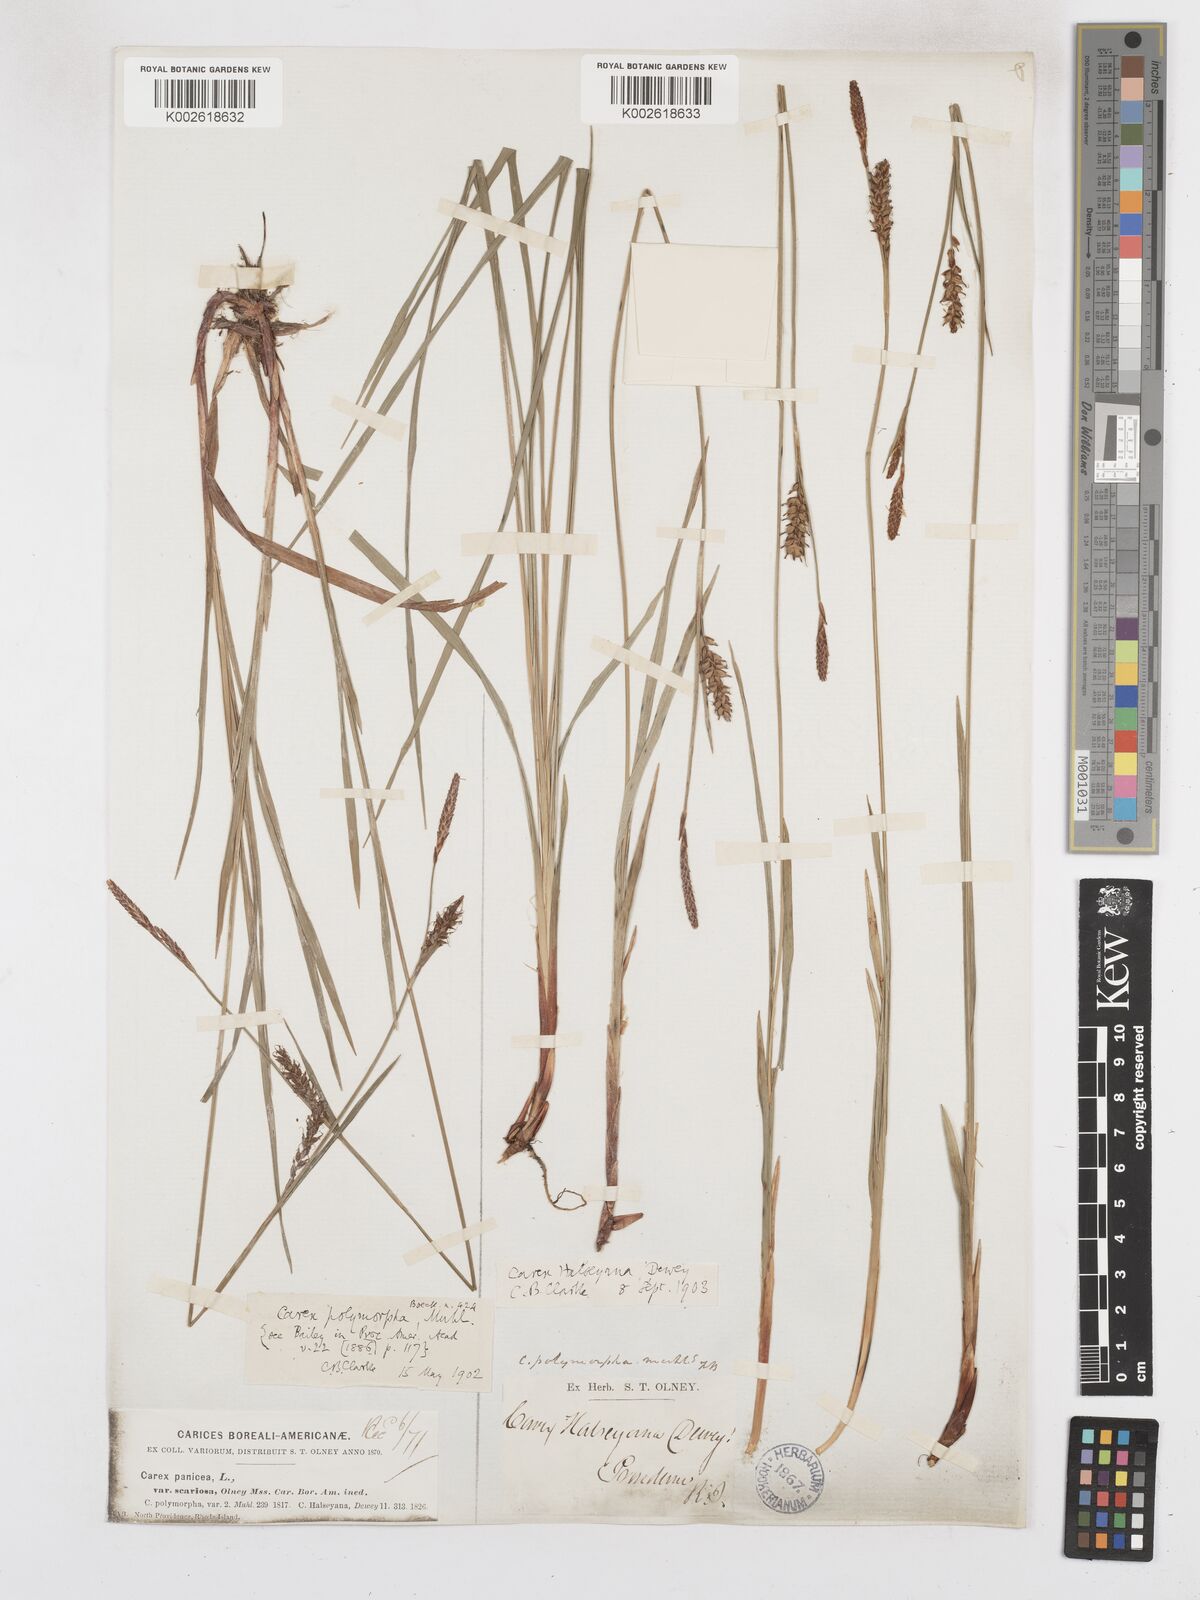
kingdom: Plantae
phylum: Tracheophyta
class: Liliopsida
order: Poales
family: Cyperaceae
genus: Carex
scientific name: Carex polymorpha
